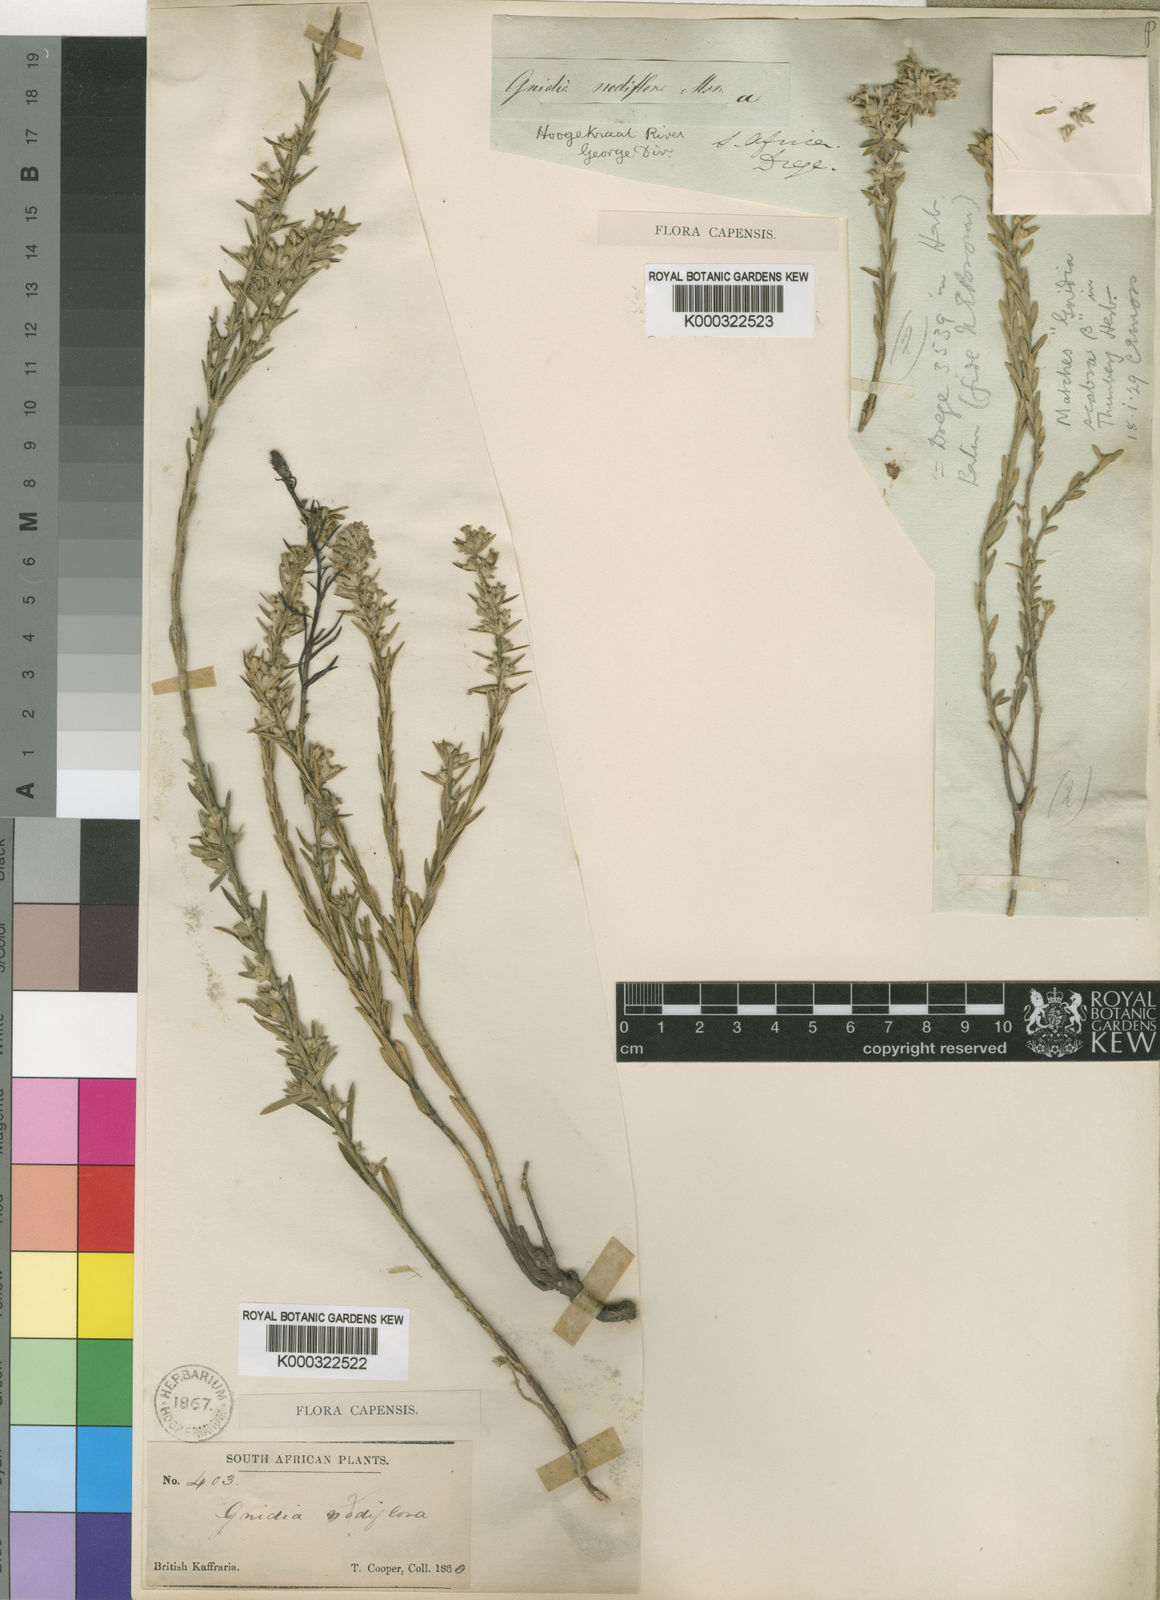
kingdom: Plantae
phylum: Tracheophyta
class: Magnoliopsida
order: Malvales
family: Thymelaeaceae
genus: Gnidia
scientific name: Gnidia nodiflora
